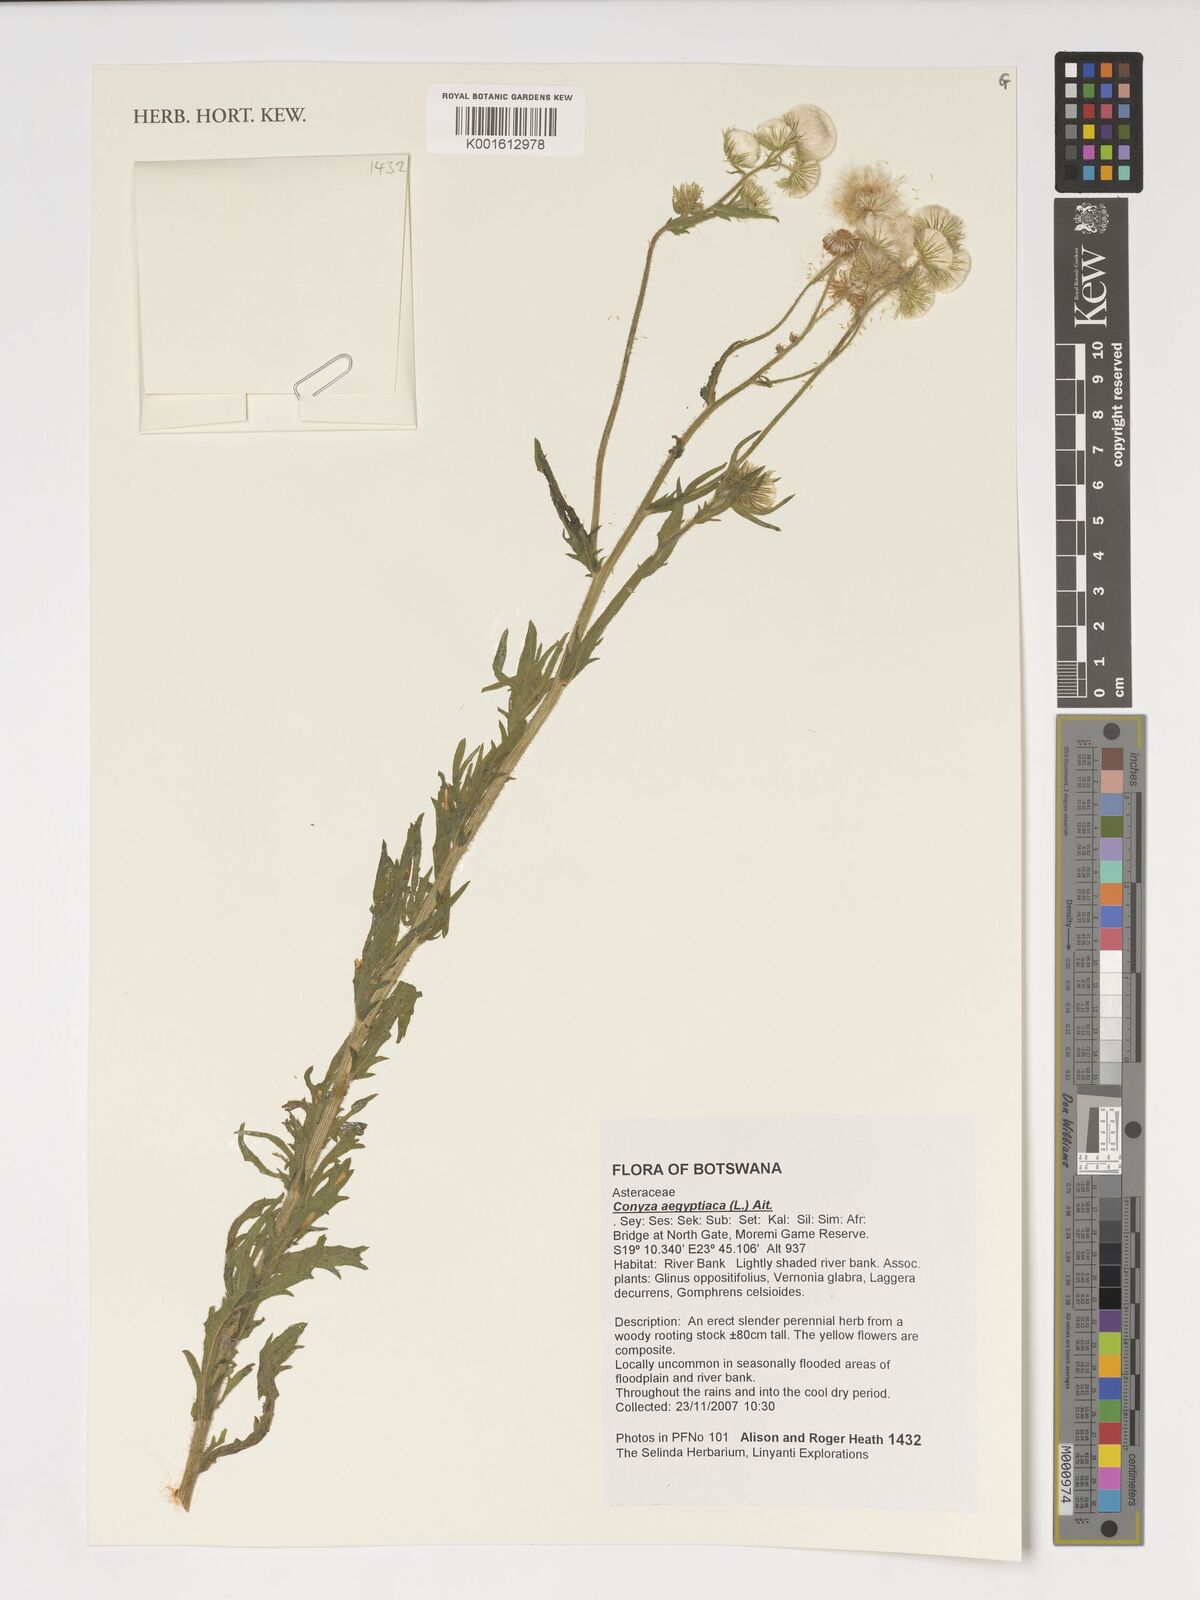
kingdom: Plantae
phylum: Tracheophyta
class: Magnoliopsida
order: Asterales
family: Asteraceae
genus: Nidorella
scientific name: Nidorella aegyptiaca
